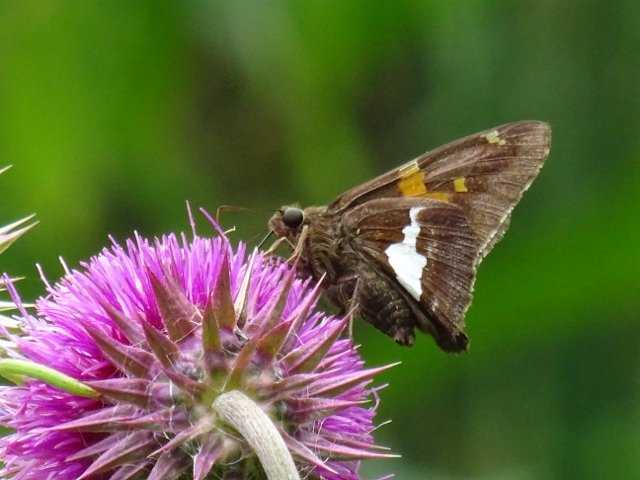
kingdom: Animalia
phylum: Arthropoda
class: Insecta
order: Lepidoptera
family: Hesperiidae
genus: Epargyreus
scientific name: Epargyreus clarus
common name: Silver-spotted Skipper
